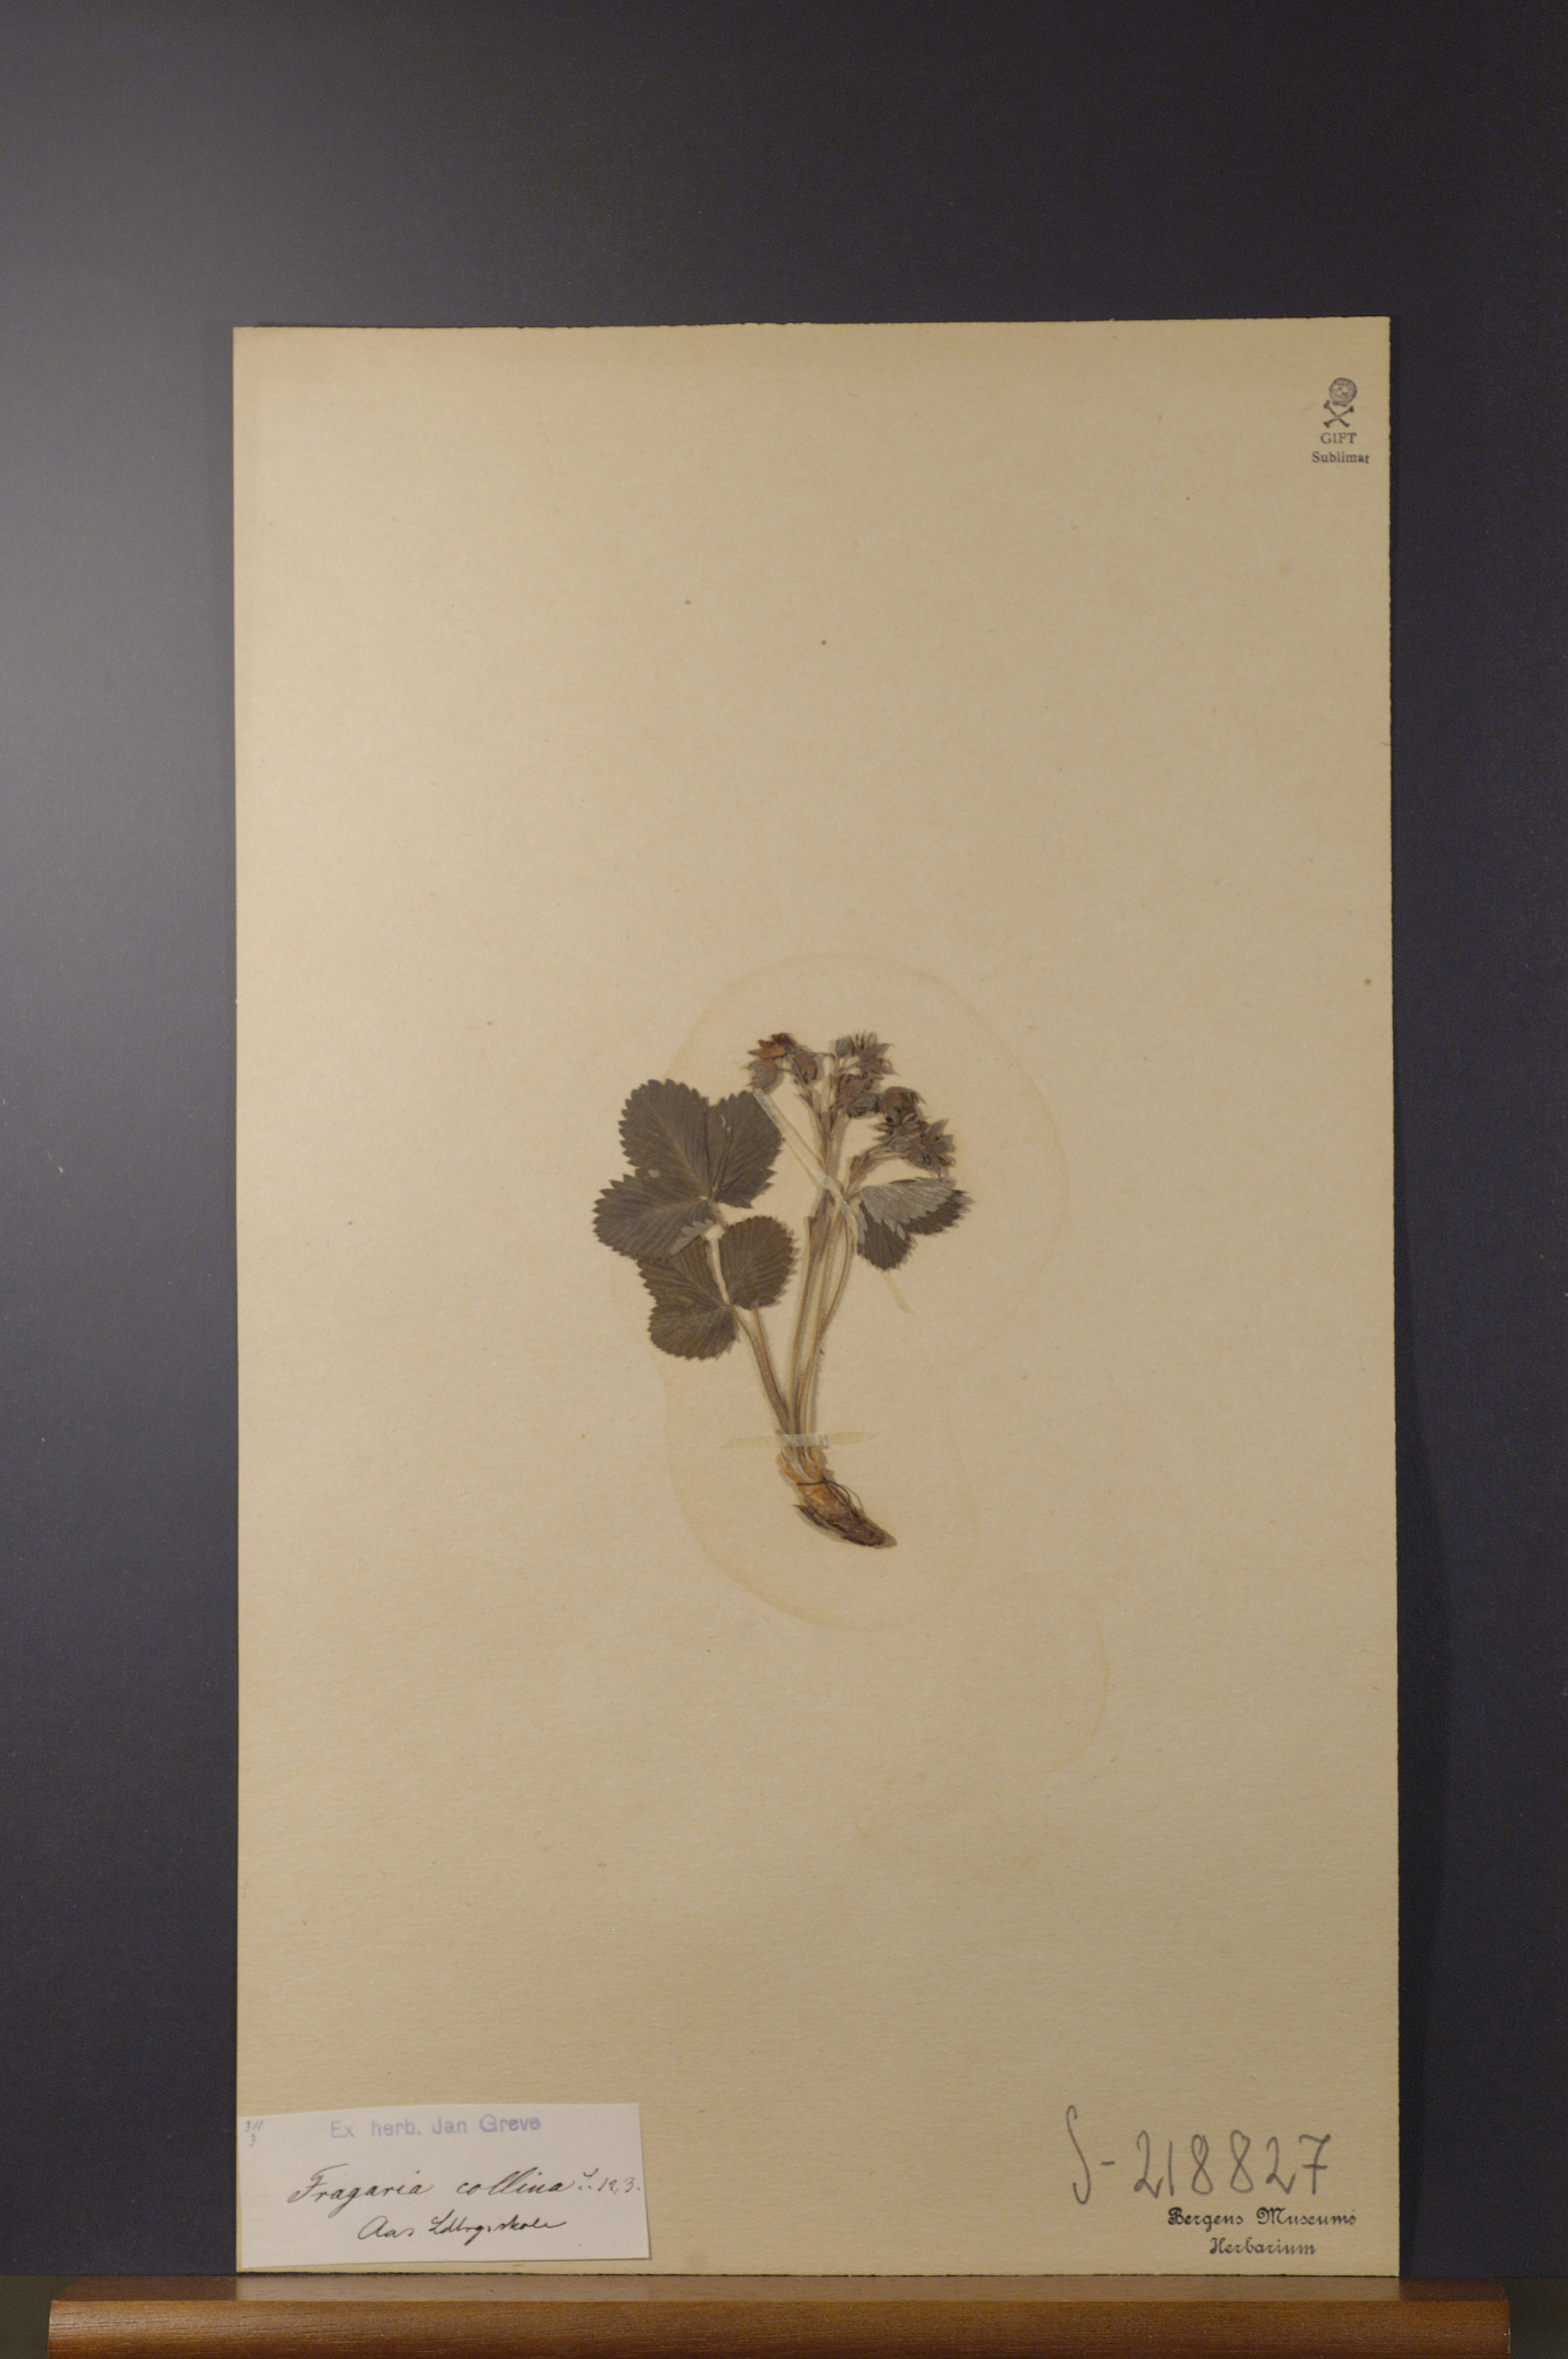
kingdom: Plantae
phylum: Tracheophyta
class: Magnoliopsida
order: Rosales
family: Rosaceae
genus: Fragaria
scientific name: Fragaria viridis
